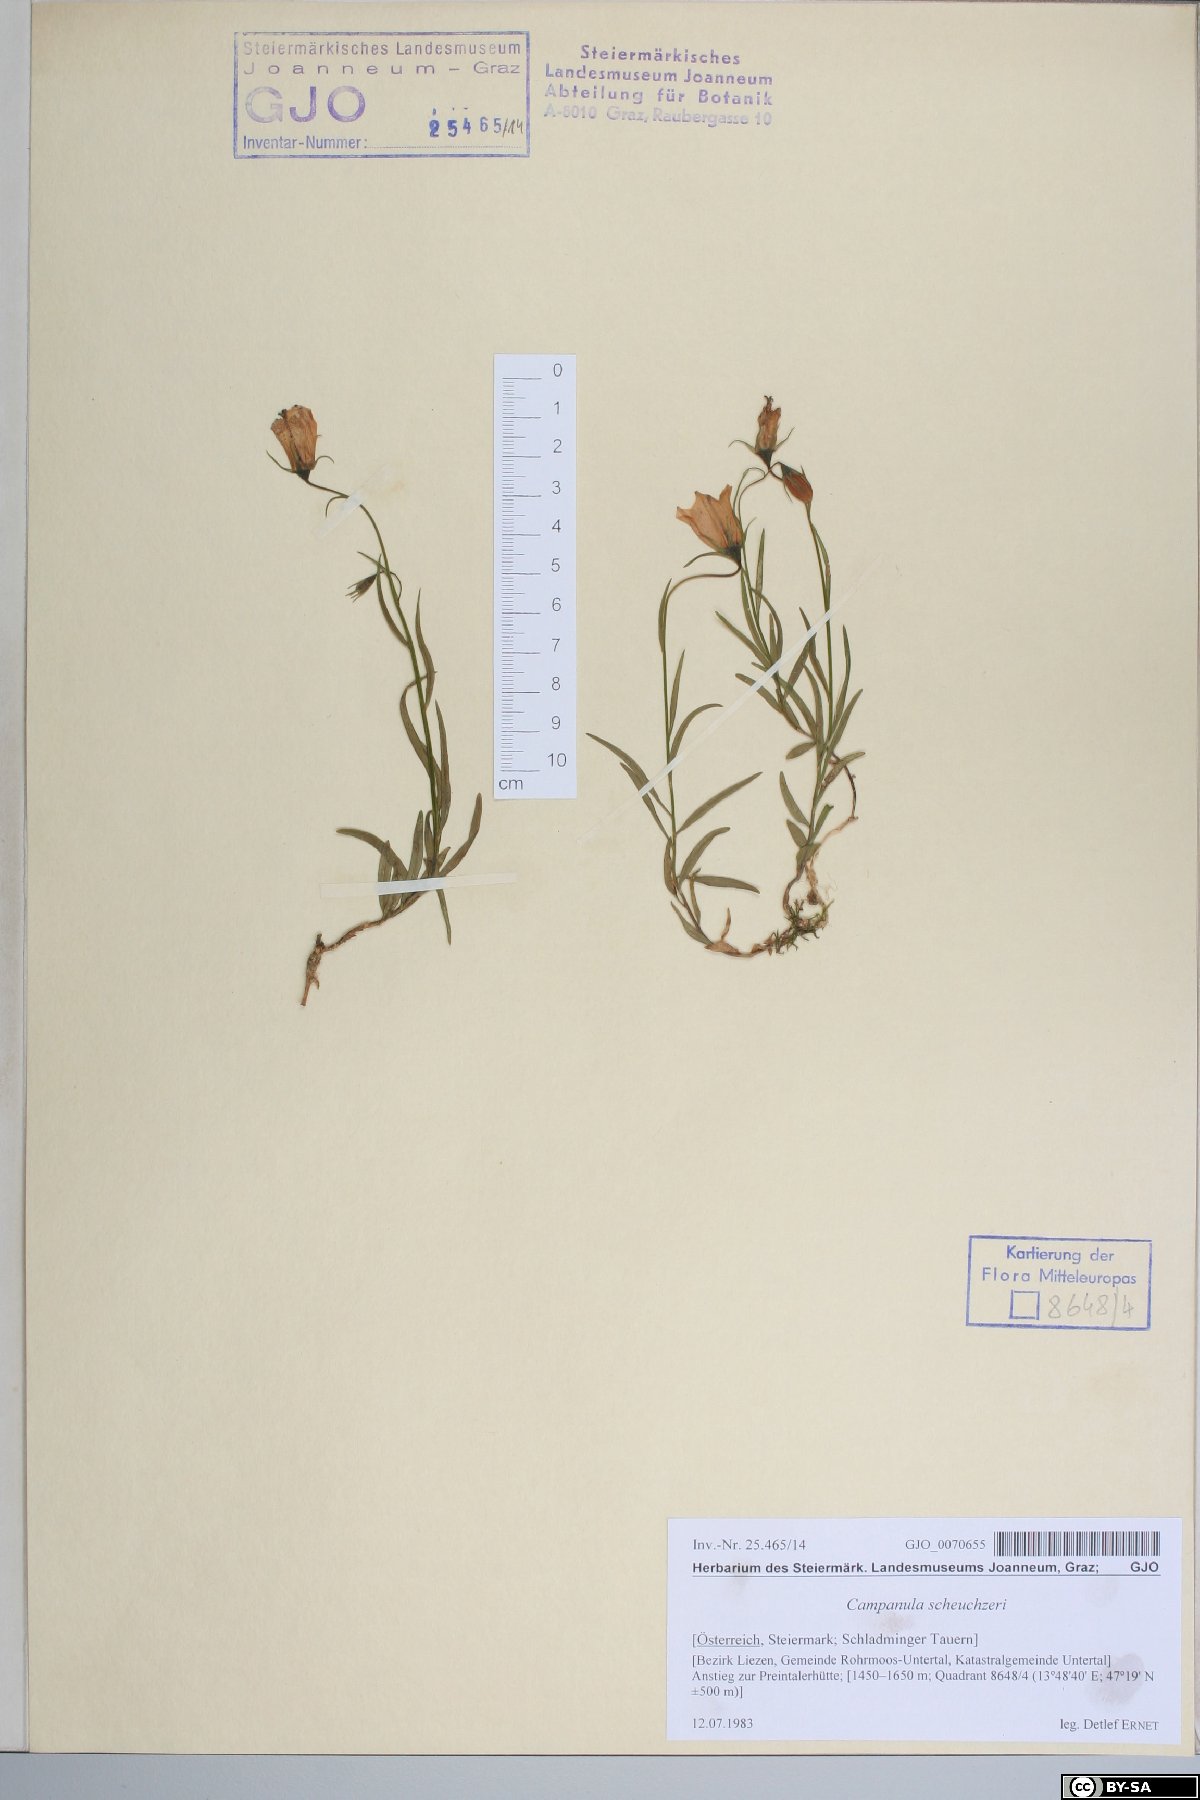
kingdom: Plantae
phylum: Tracheophyta
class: Magnoliopsida
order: Asterales
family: Campanulaceae
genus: Campanula
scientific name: Campanula scheuchzeri
